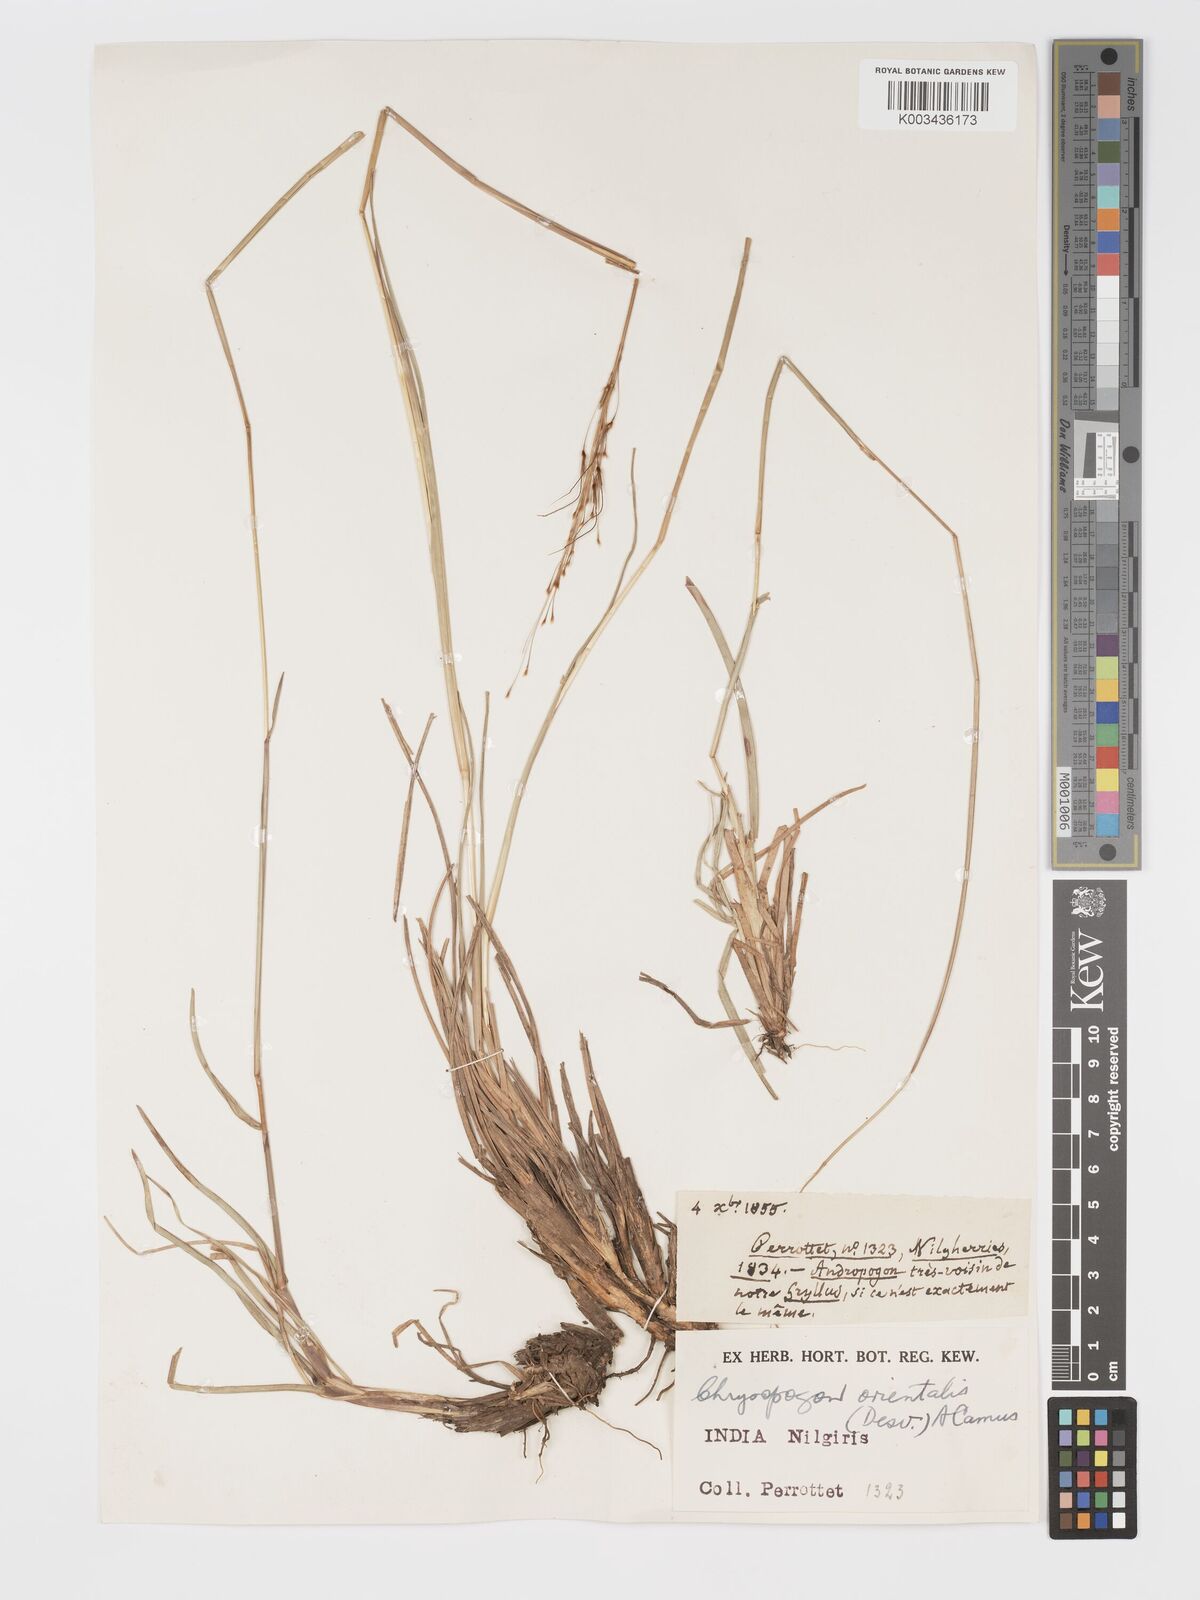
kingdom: Plantae
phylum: Tracheophyta
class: Liliopsida
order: Poales
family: Poaceae
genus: Chrysopogon
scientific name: Chrysopogon orientalis
